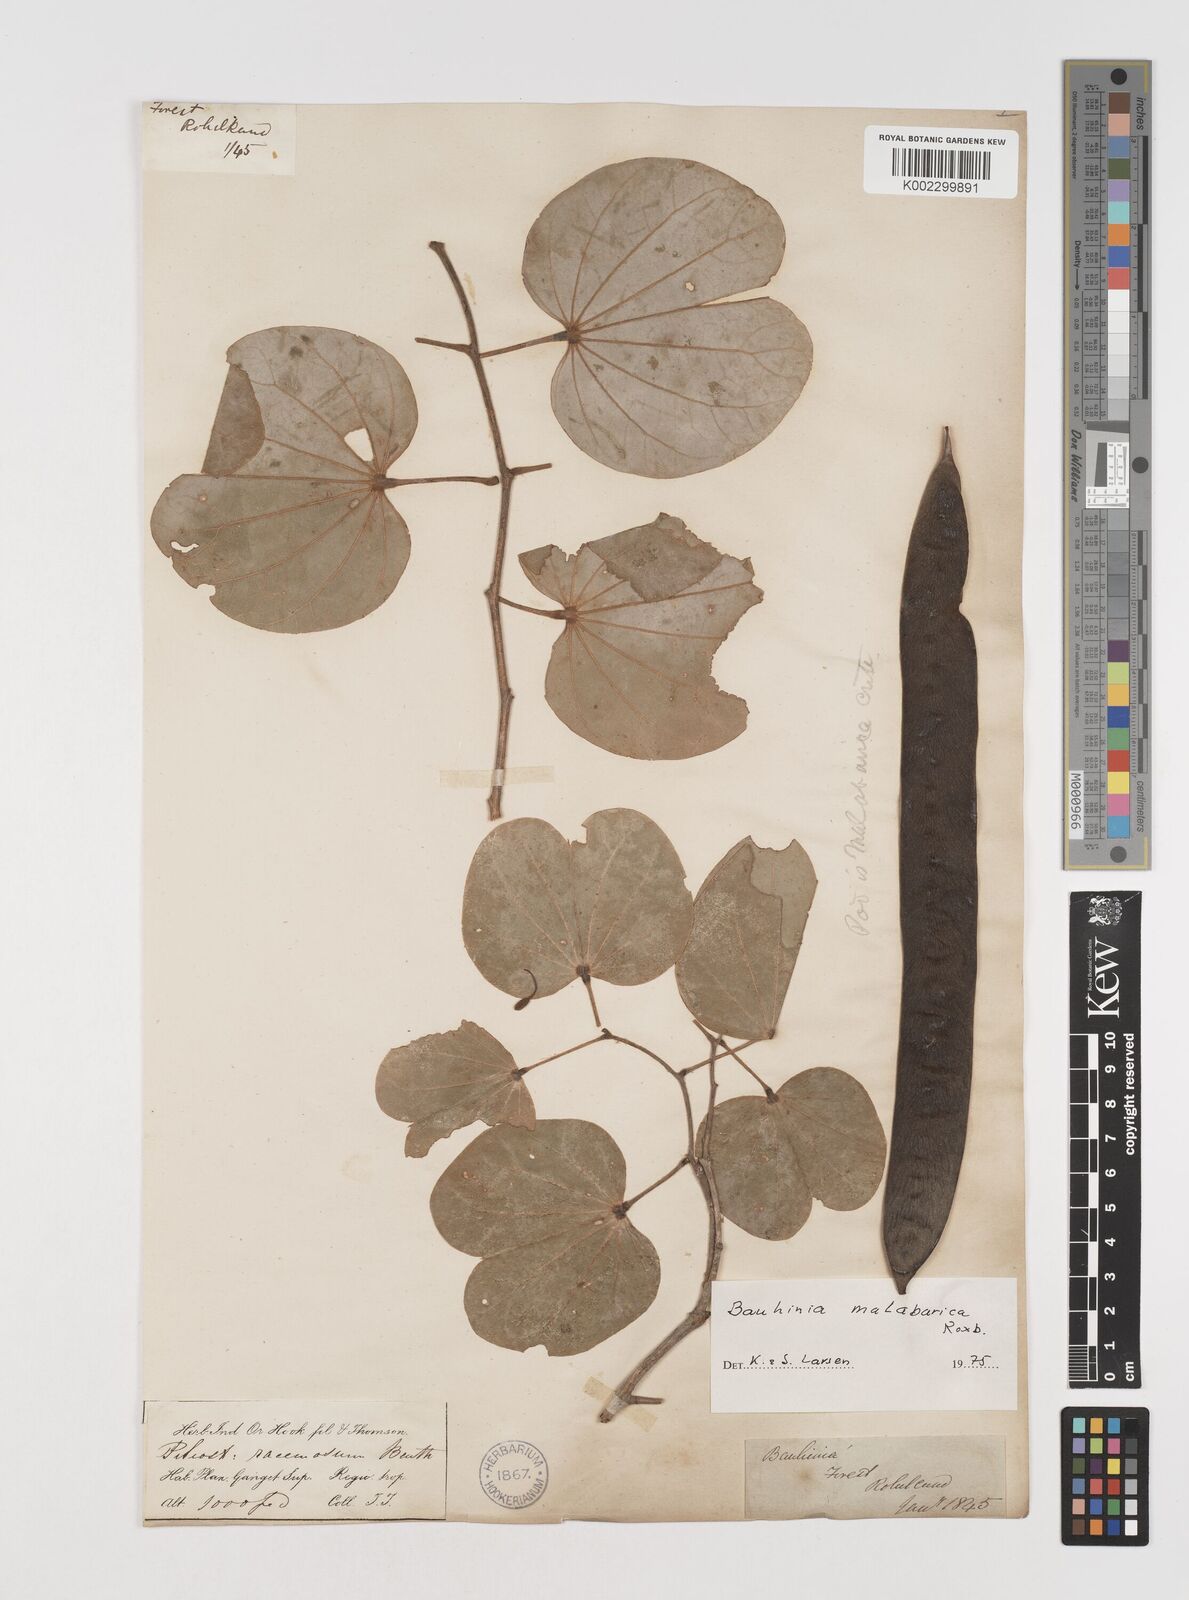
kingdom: Plantae
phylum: Tracheophyta
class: Magnoliopsida
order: Fabales
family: Fabaceae
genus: Piliostigma
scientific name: Piliostigma malabaricum
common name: Malabar bauhinia
